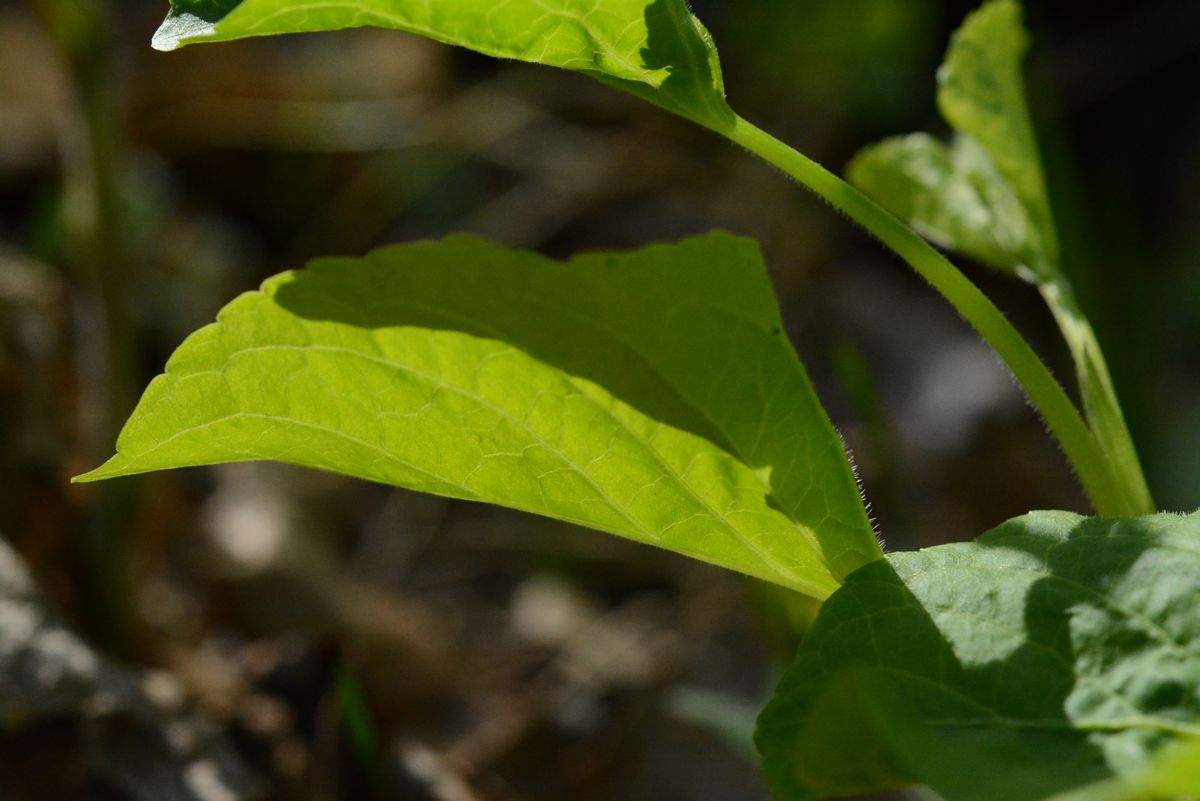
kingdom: Plantae
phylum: Tracheophyta
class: Magnoliopsida
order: Malpighiales
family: Violaceae
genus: Viola
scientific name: Viola rupestris
